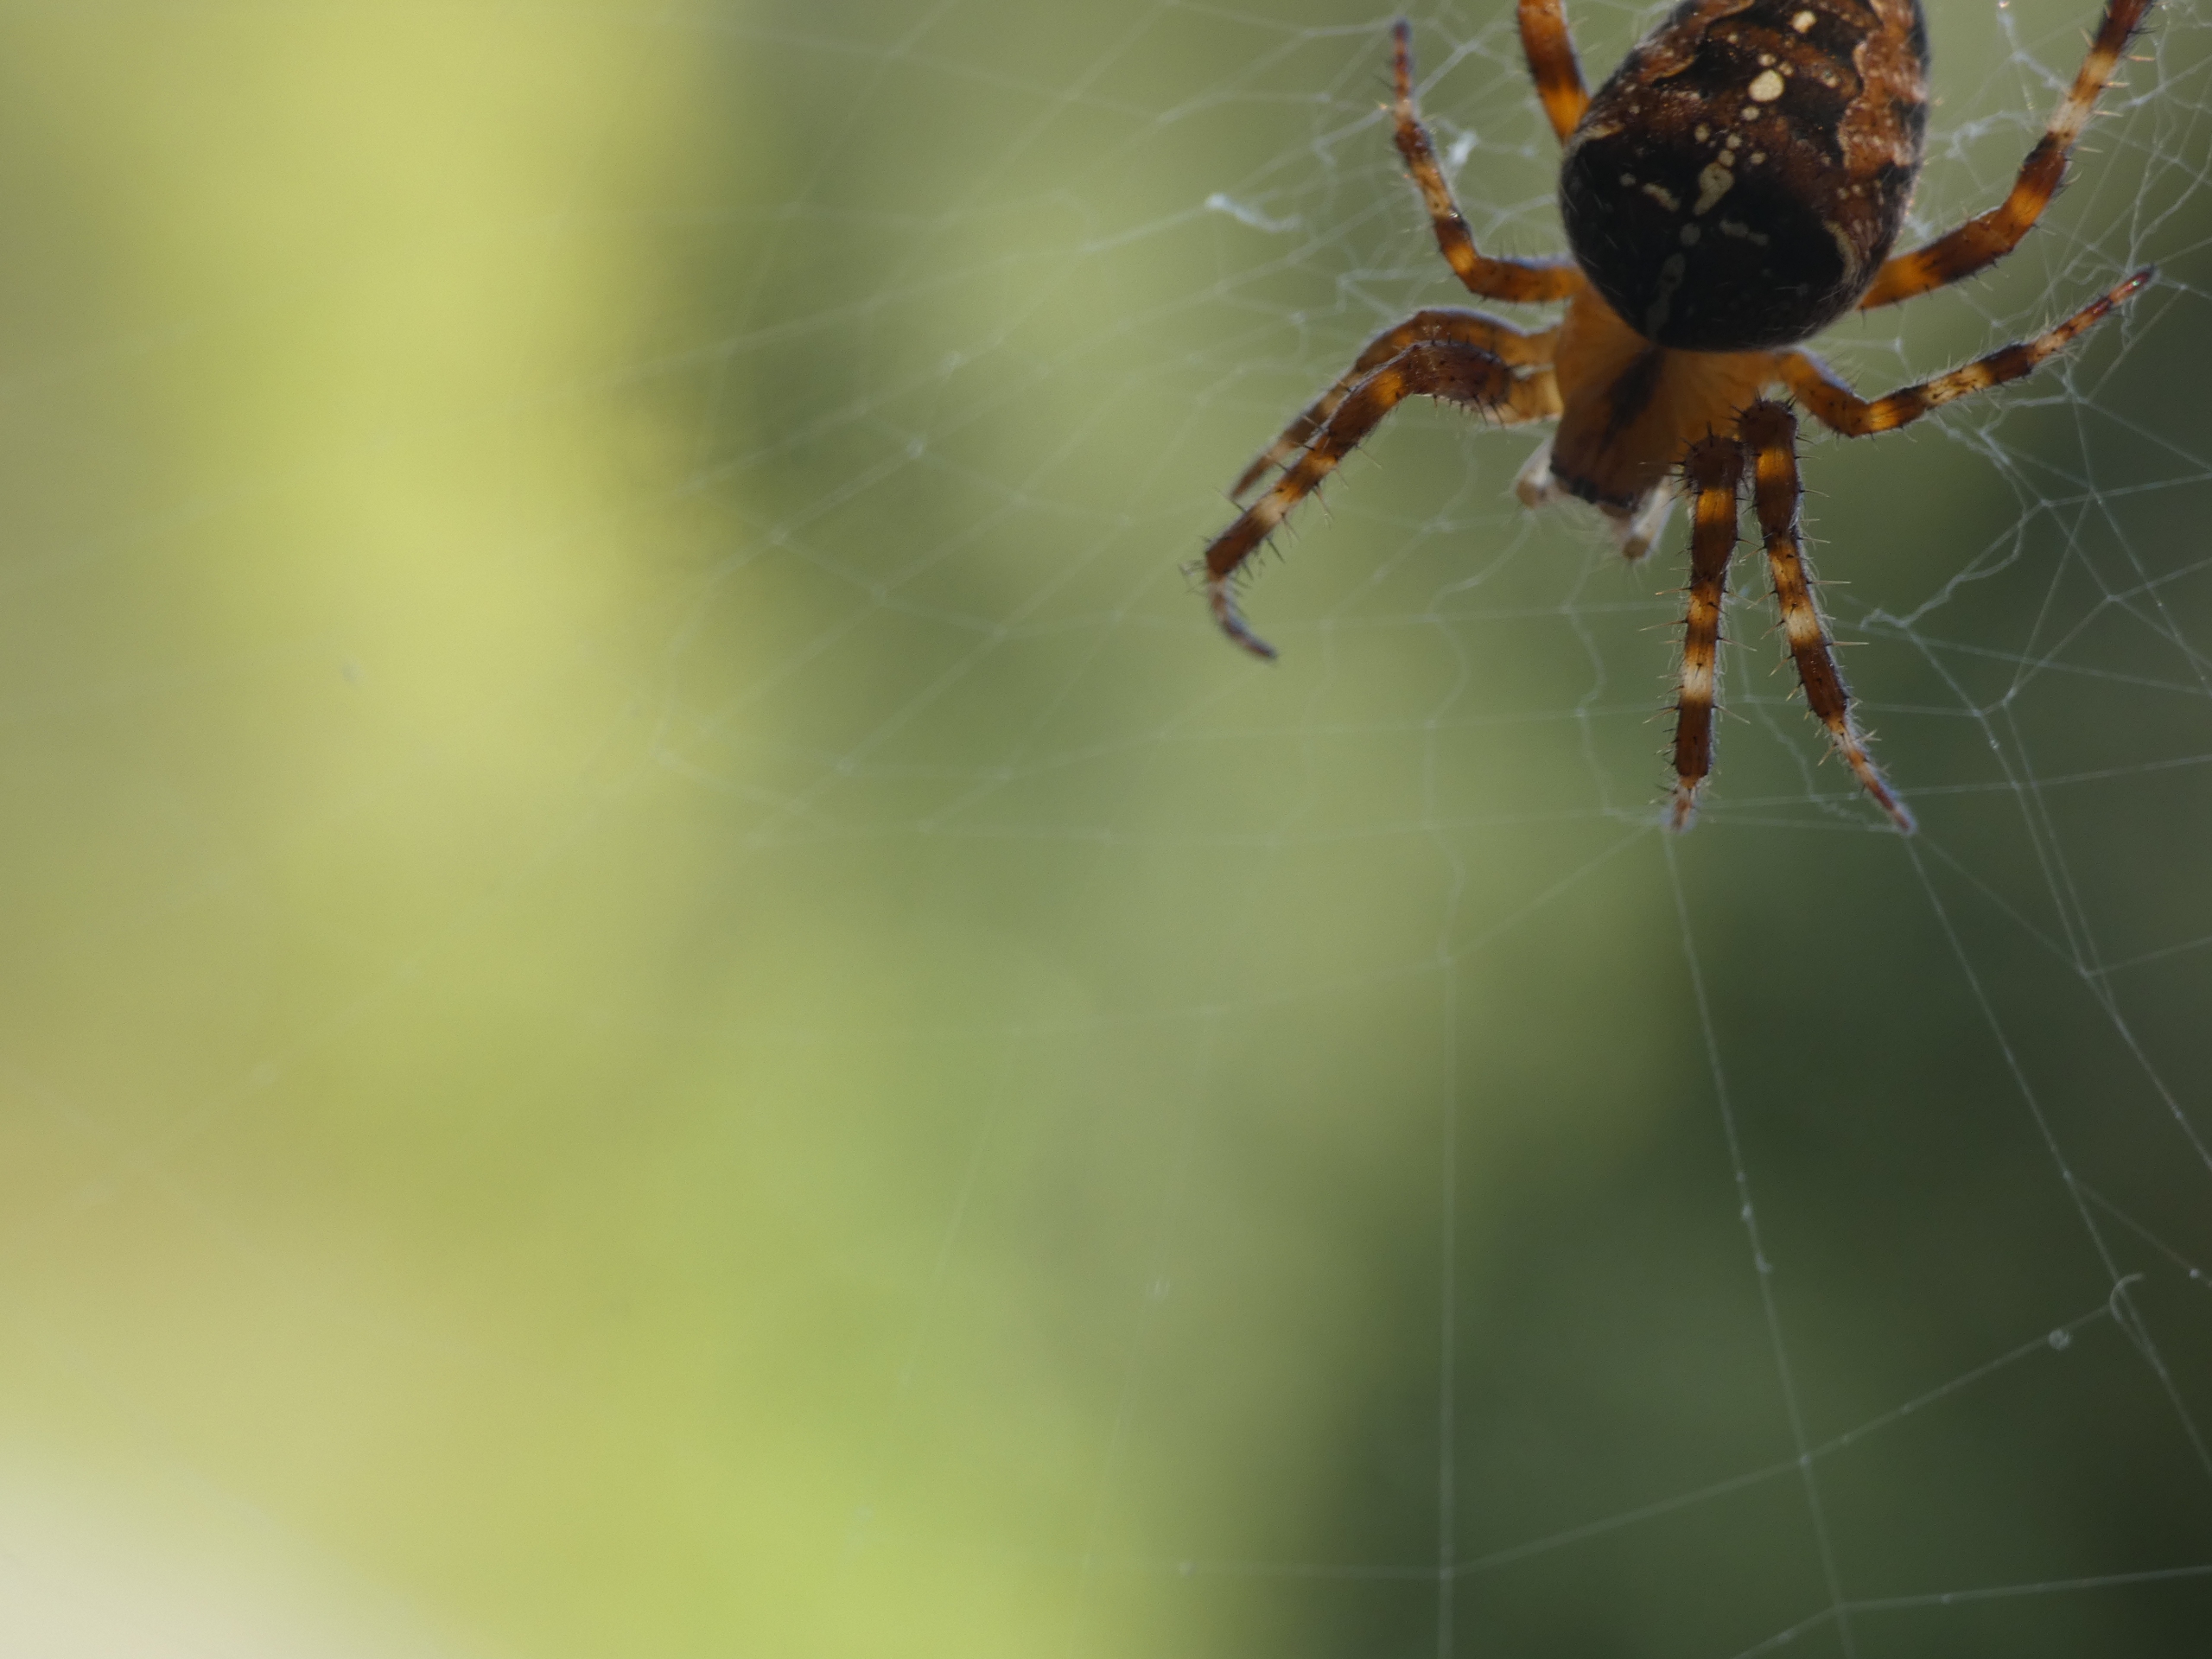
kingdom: Animalia
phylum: Arthropoda
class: Arachnida
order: Araneae
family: Araneidae
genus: Araneus
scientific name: Araneus diadematus
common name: Korsedderkop
